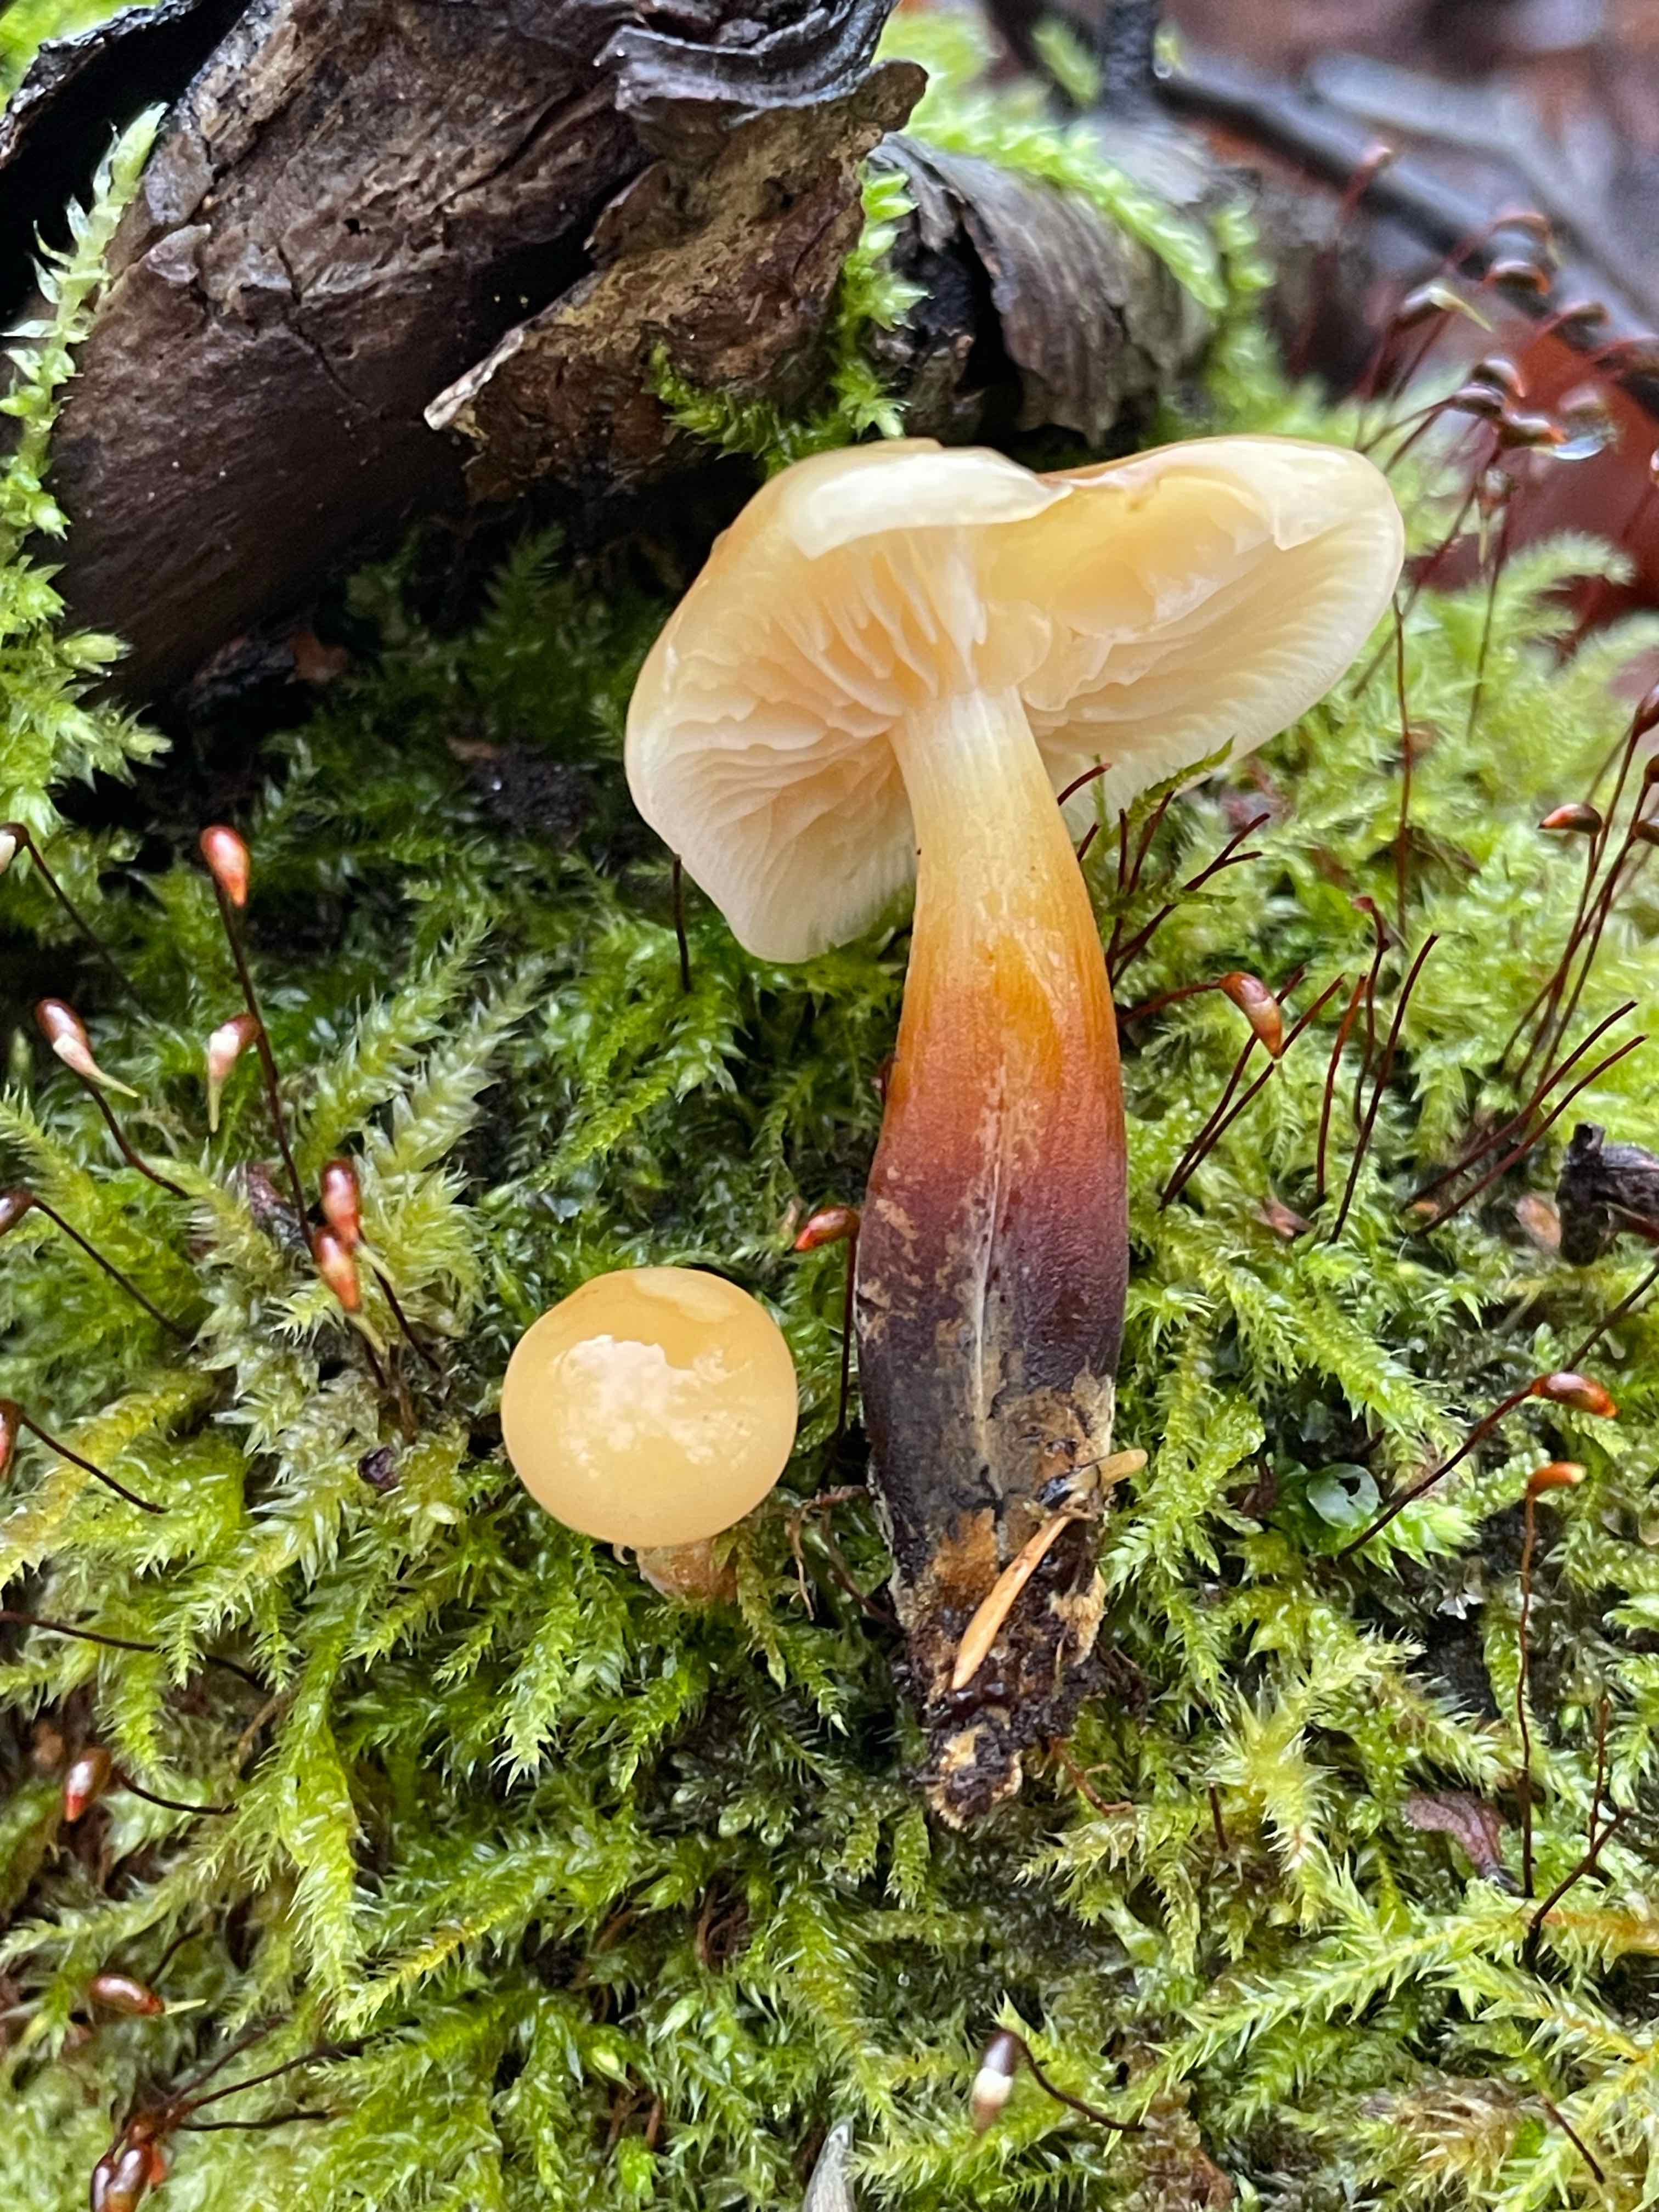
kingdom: Fungi
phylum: Basidiomycota
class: Agaricomycetes
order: Agaricales
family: Physalacriaceae
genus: Flammulina
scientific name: Flammulina
